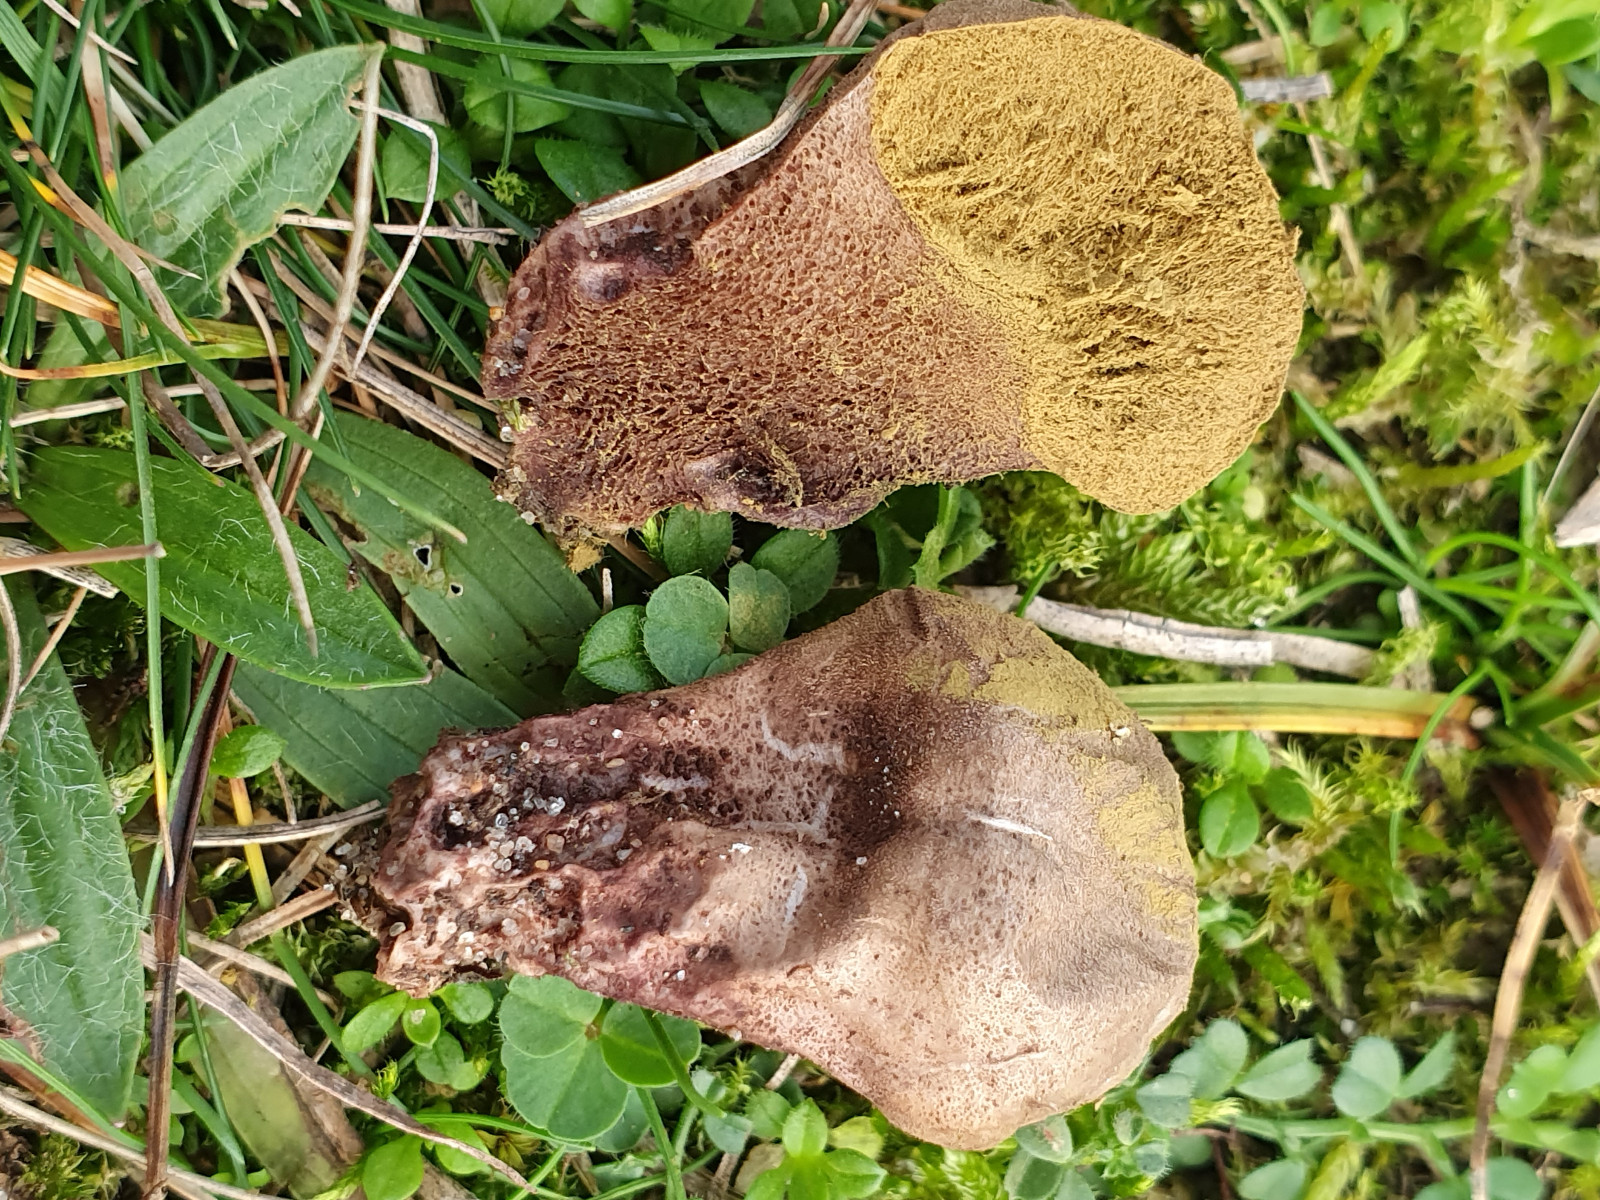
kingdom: Fungi
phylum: Basidiomycota
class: Agaricomycetes
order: Agaricales
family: Lycoperdaceae
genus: Lycoperdon
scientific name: Lycoperdon lividum
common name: mark-støvbold
